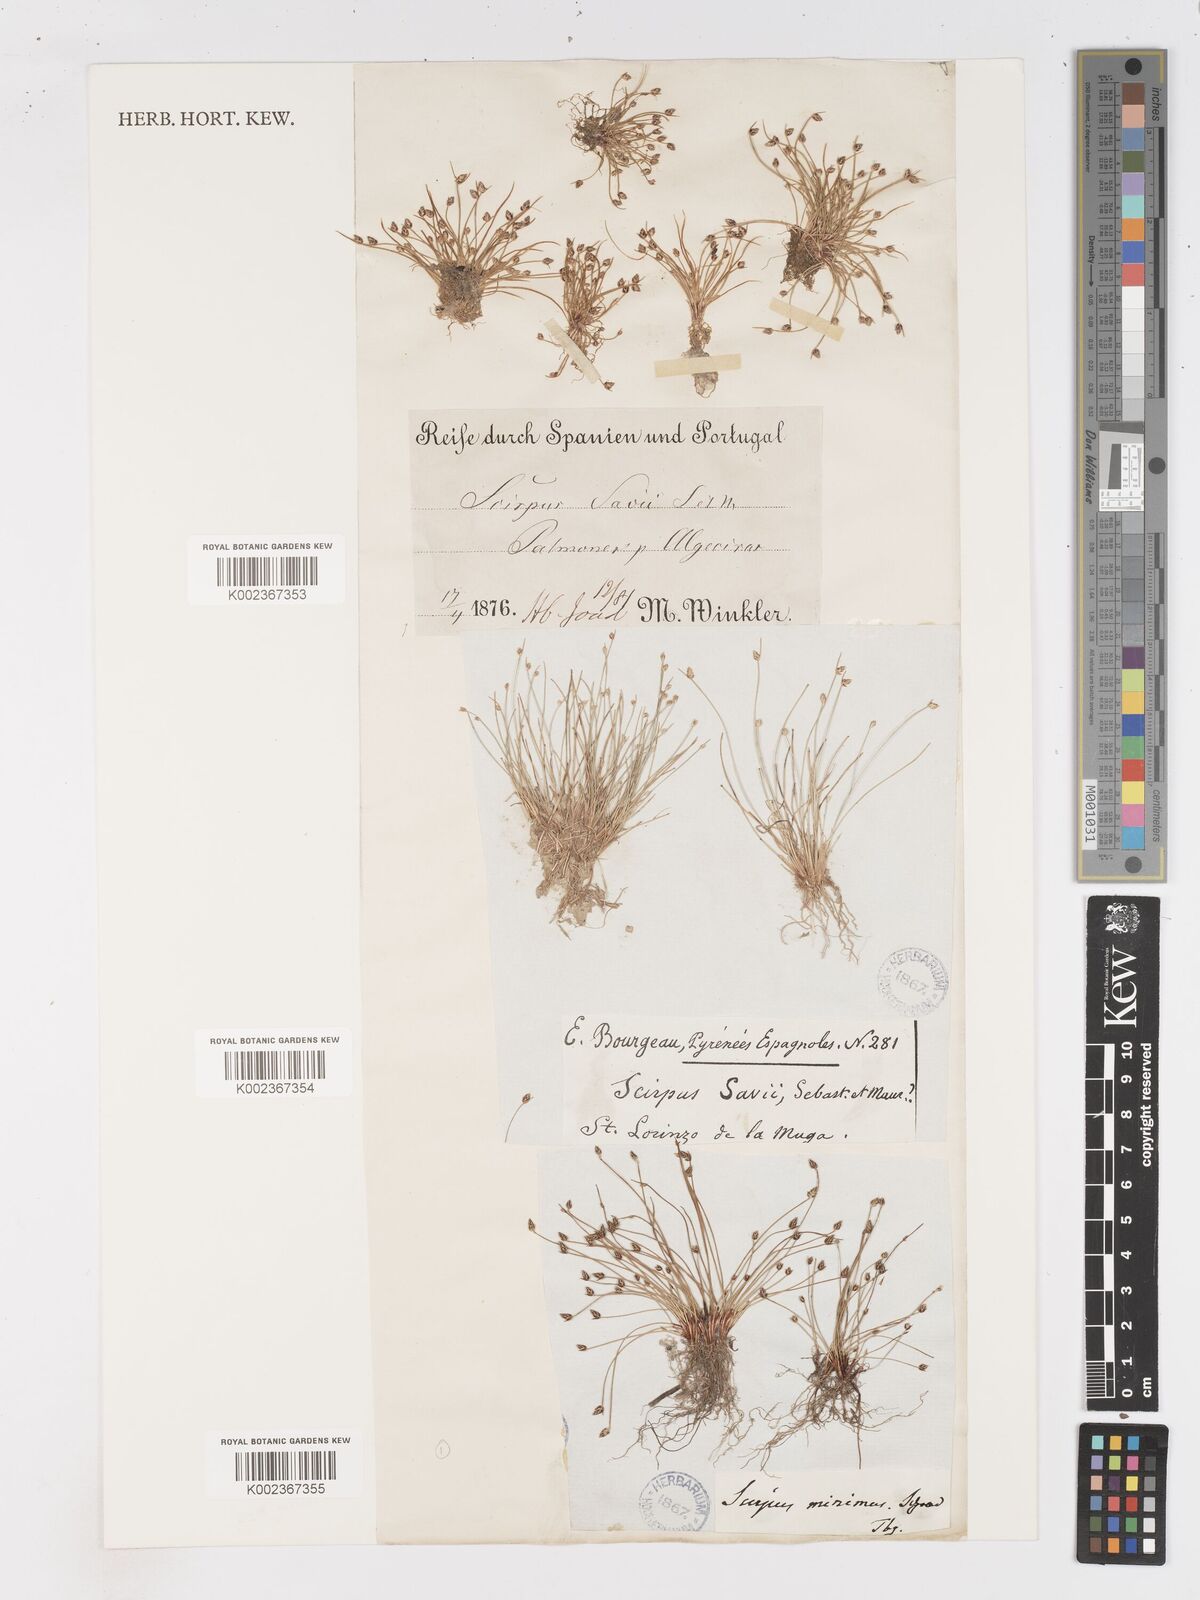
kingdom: Plantae
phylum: Tracheophyta
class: Liliopsida
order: Poales
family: Cyperaceae
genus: Isolepis
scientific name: Isolepis cernua
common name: Slender club-rush
